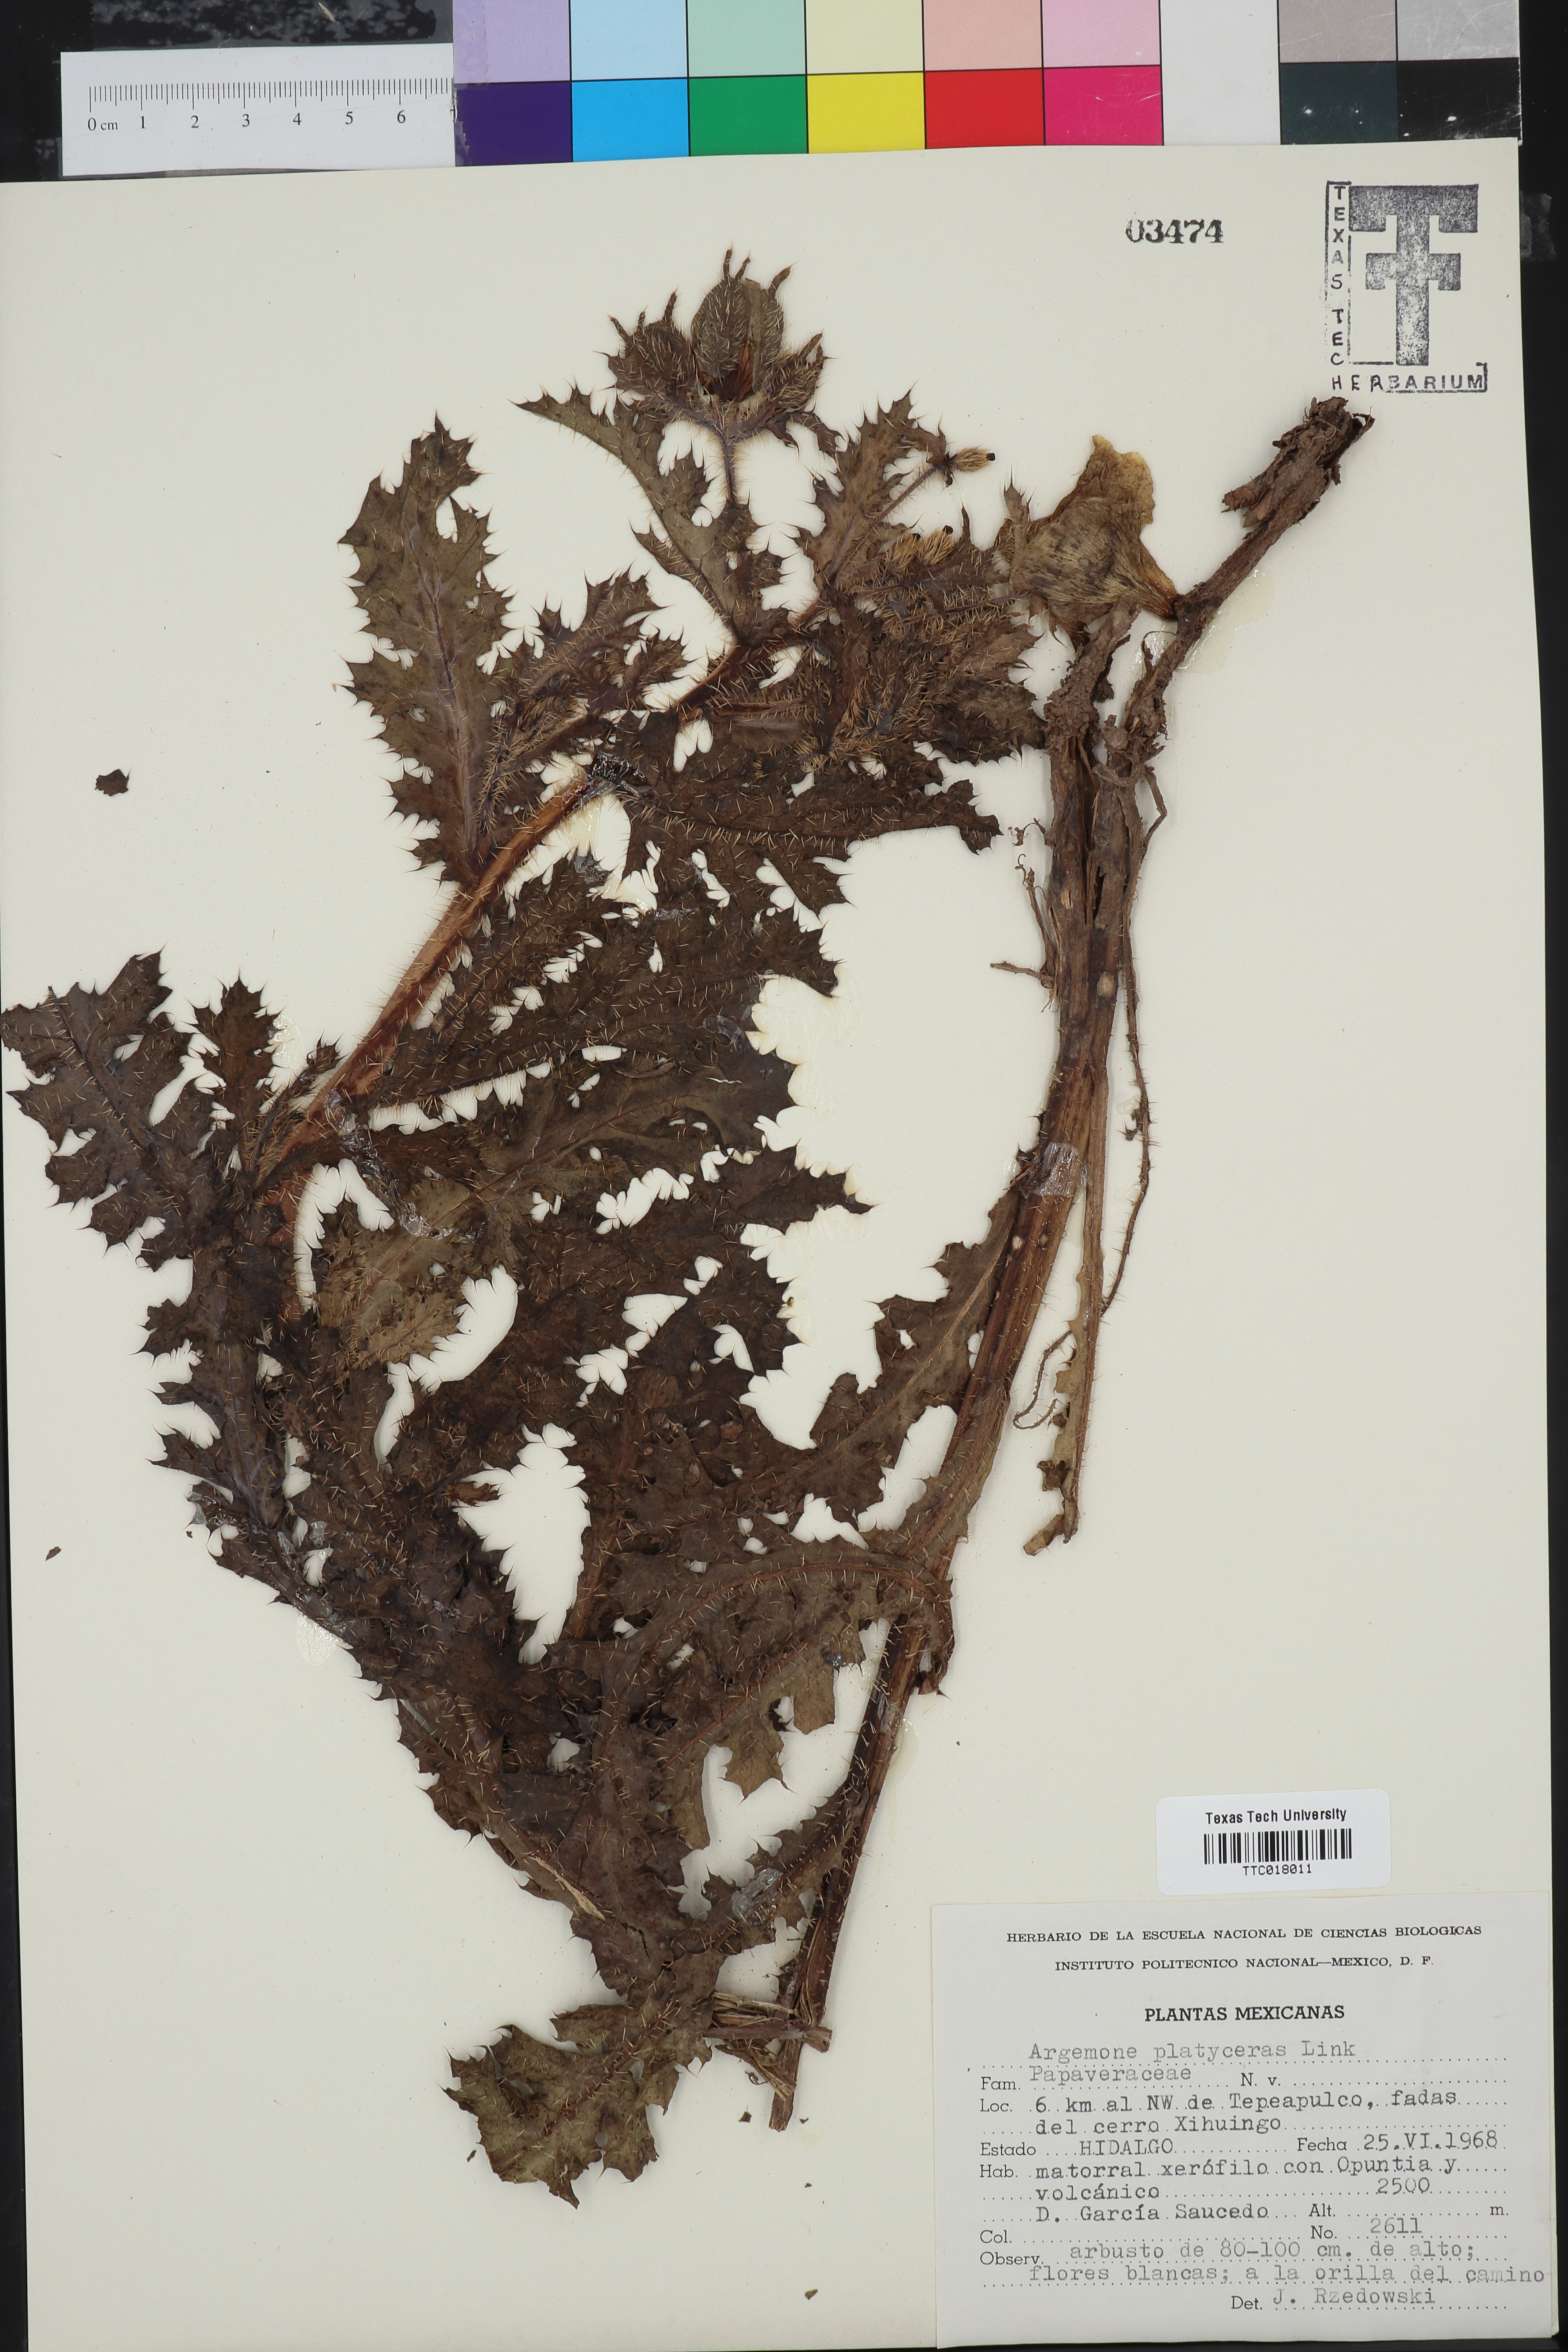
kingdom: Plantae
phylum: Tracheophyta
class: Magnoliopsida
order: Ranunculales
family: Papaveraceae
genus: Argemone
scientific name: Argemone platyceras
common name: Crested-poppy
